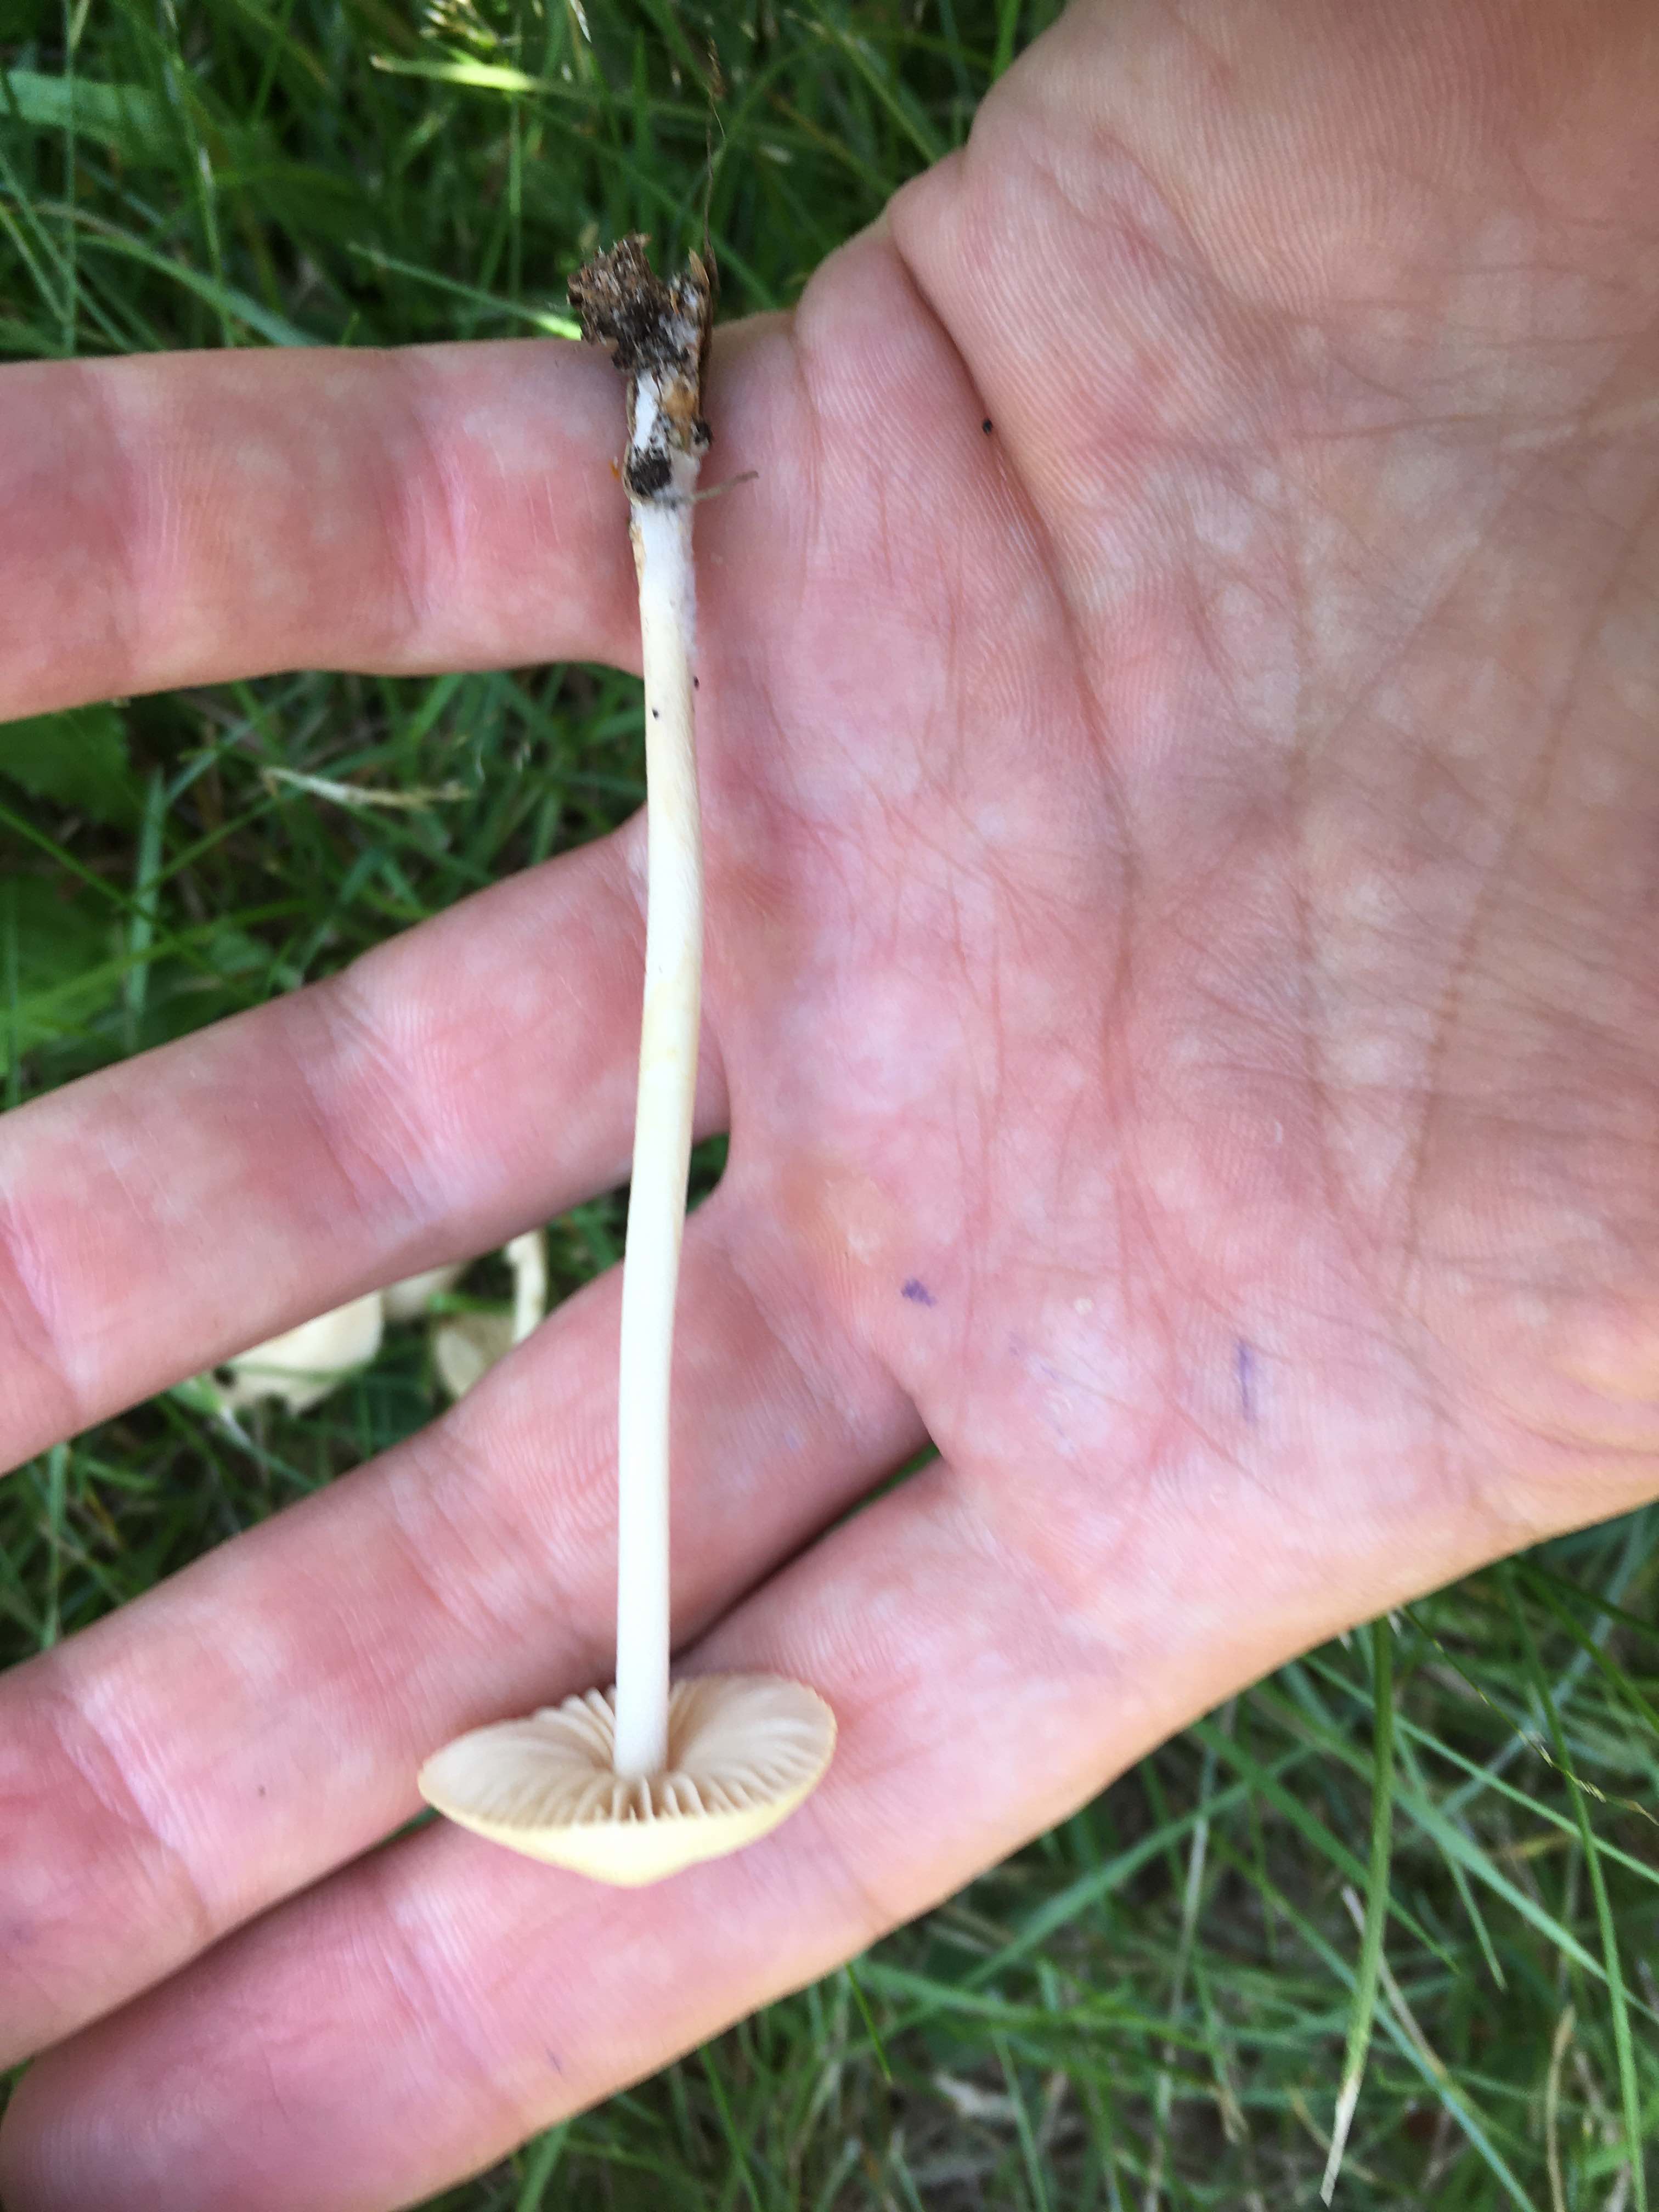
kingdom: Fungi
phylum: Basidiomycota
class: Agaricomycetes
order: Agaricales
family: Marasmiaceae
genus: Marasmius
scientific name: Marasmius oreades
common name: elledans-bruskhat
